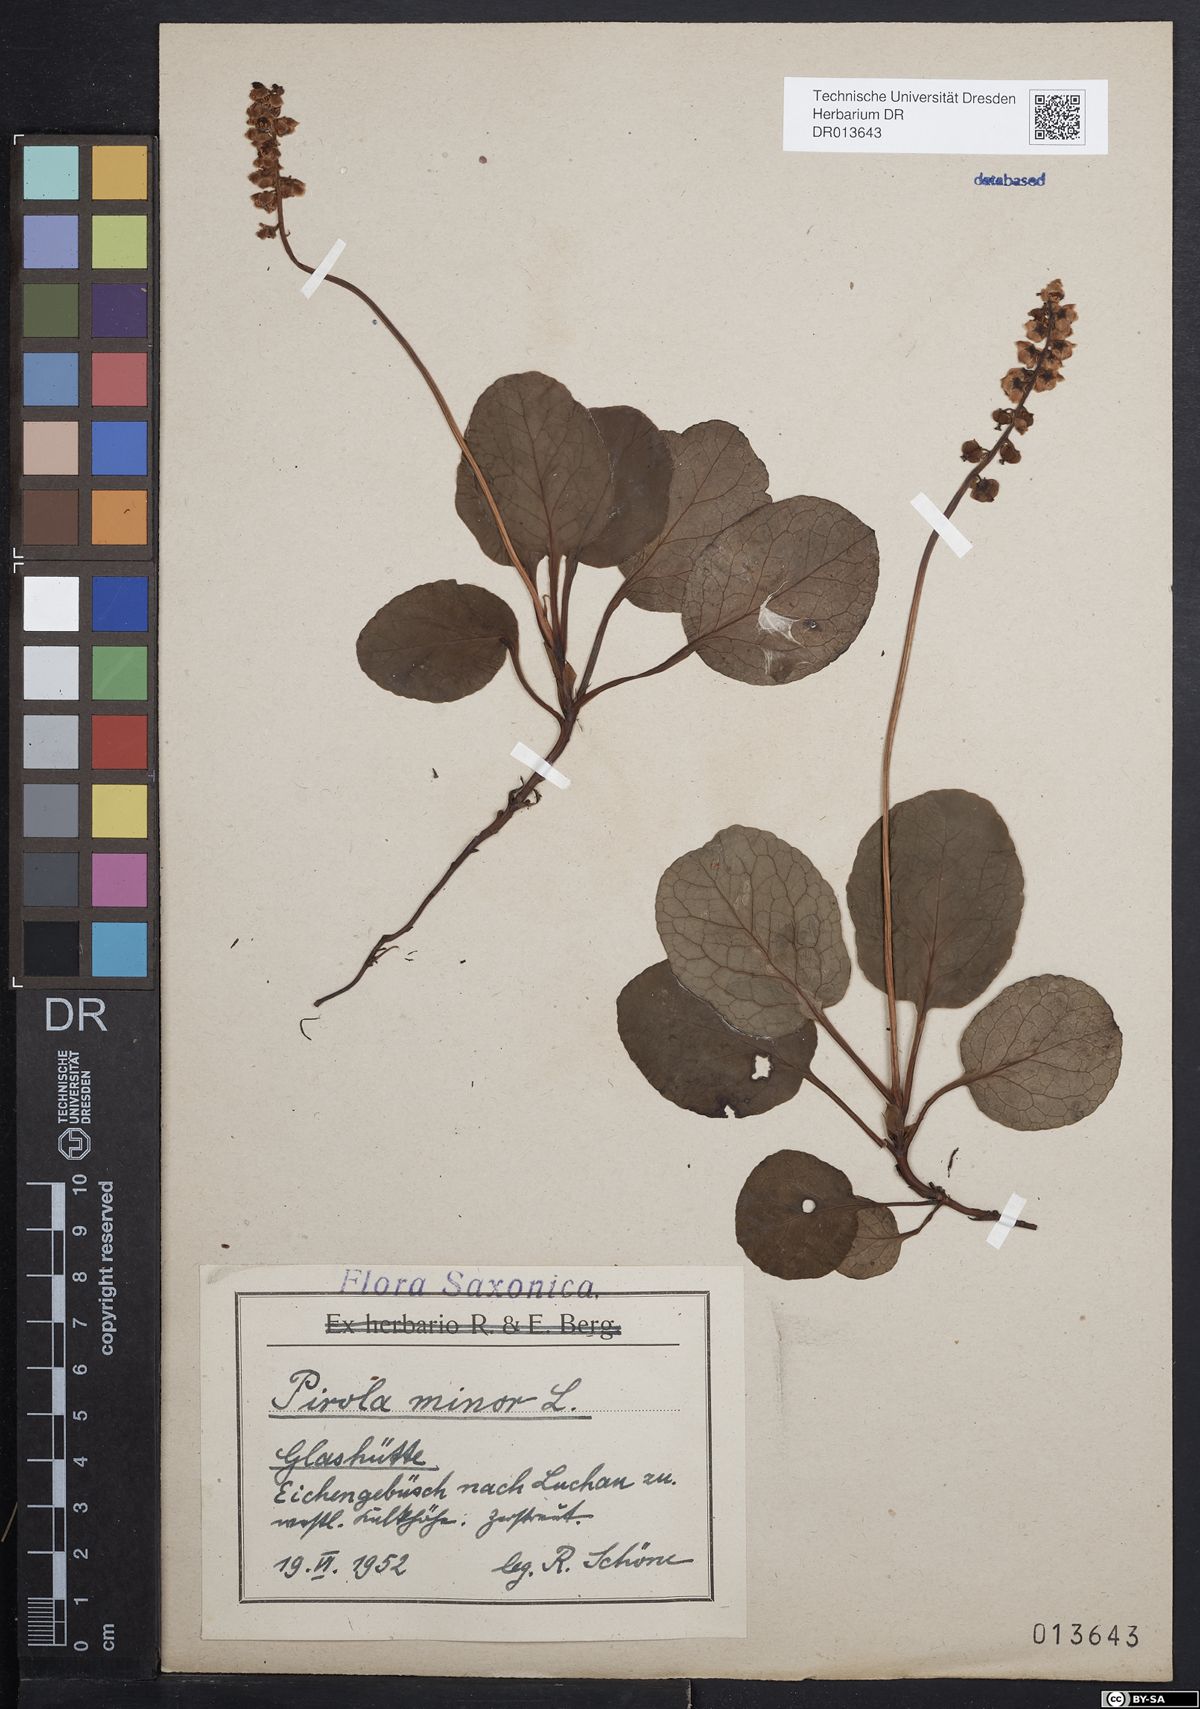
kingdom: Plantae
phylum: Tracheophyta
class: Magnoliopsida
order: Ericales
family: Ericaceae
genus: Pyrola
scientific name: Pyrola minor
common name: Common wintergreen
